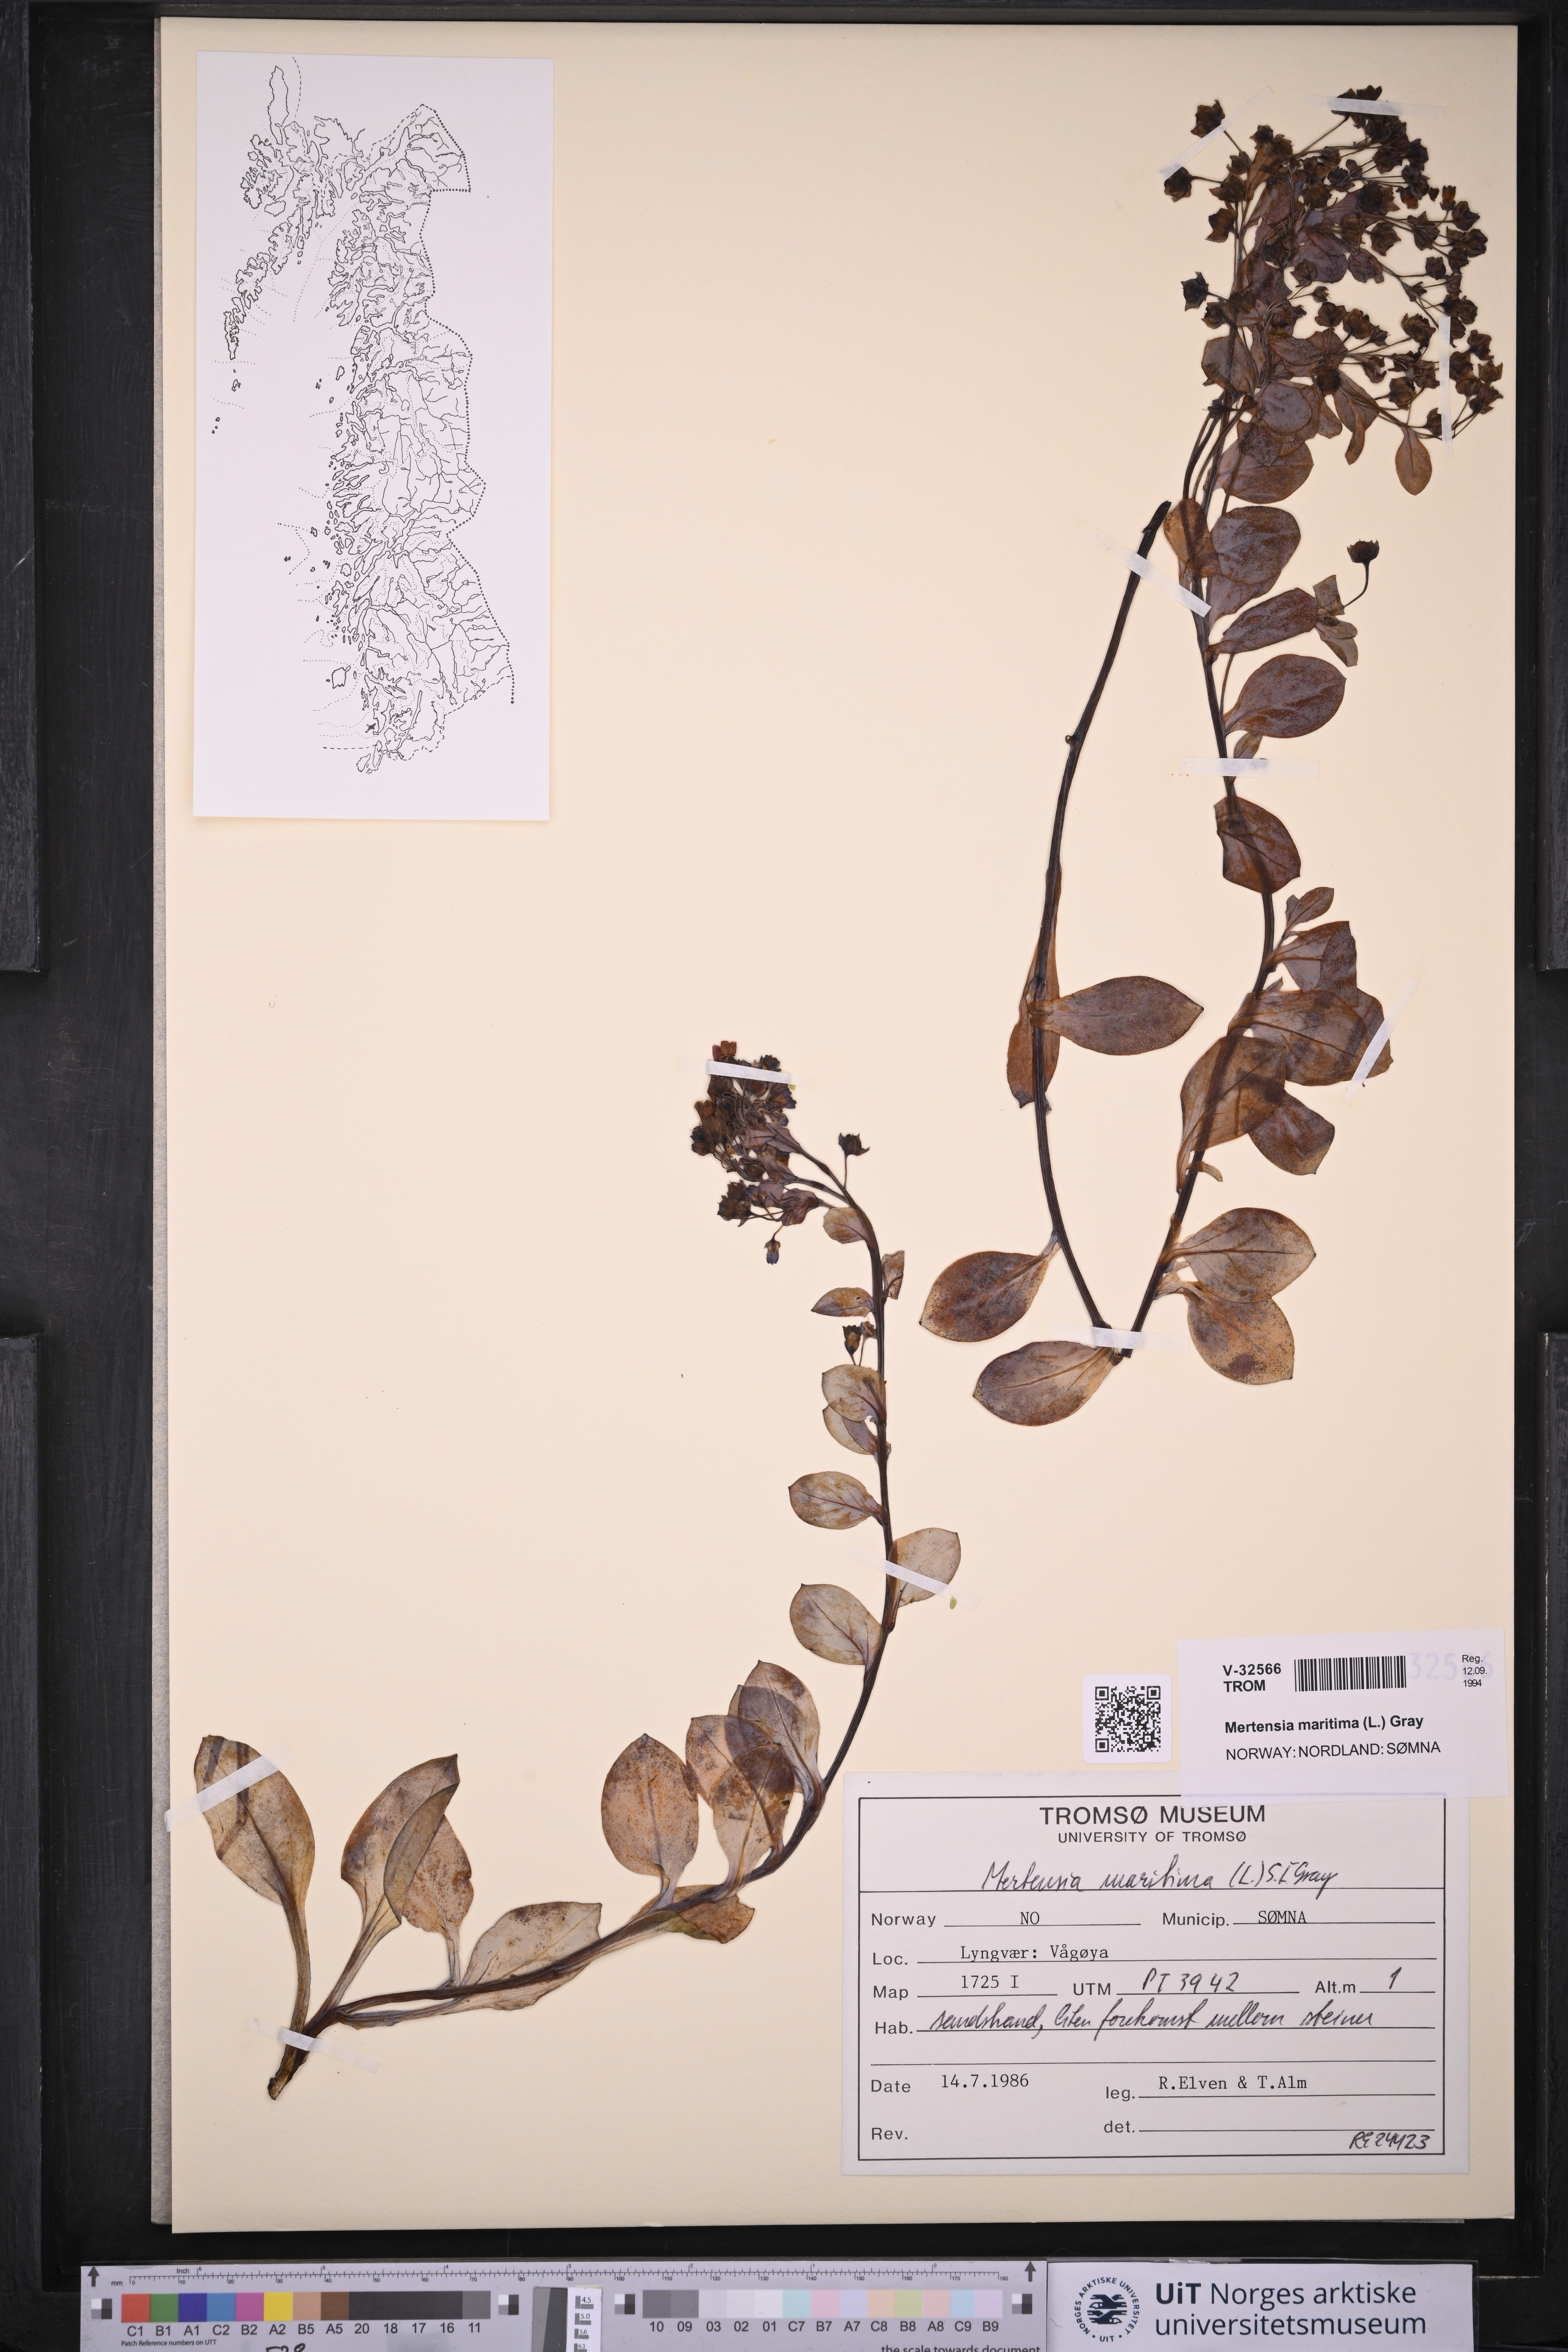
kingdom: Plantae
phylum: Tracheophyta
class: Magnoliopsida
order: Boraginales
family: Boraginaceae
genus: Mertensia
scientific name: Mertensia maritima
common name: Oysterplant
